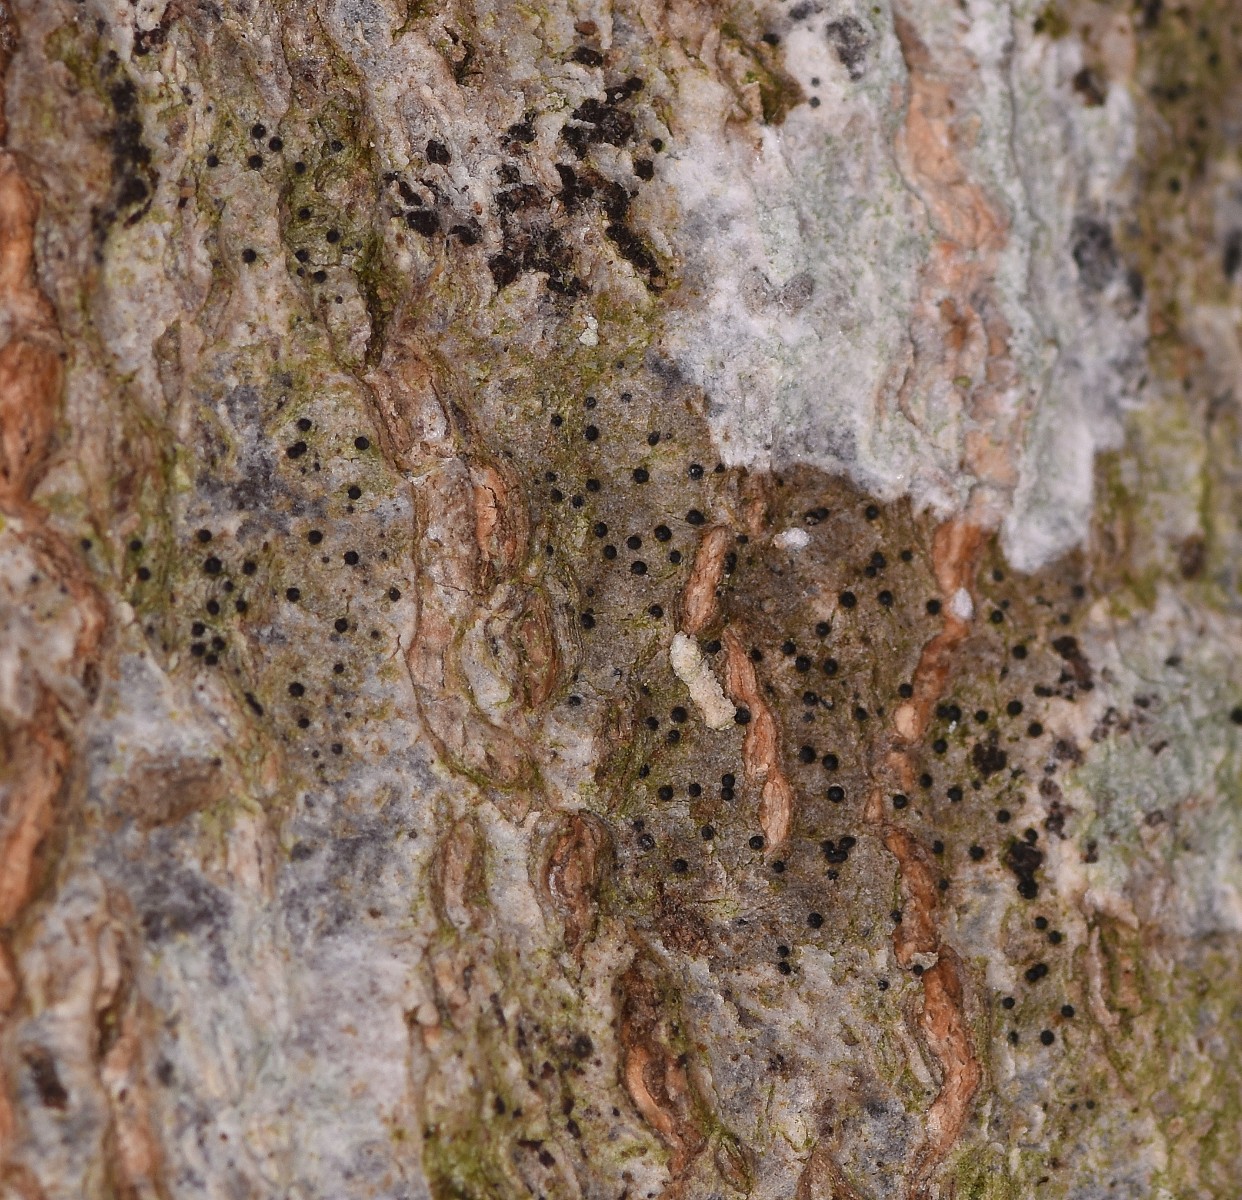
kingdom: Fungi
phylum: Ascomycota
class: Lecanoromycetes
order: Ostropales
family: Porinaceae
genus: Pseudosagedia
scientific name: Pseudosagedia aenea
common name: grønlig porina
